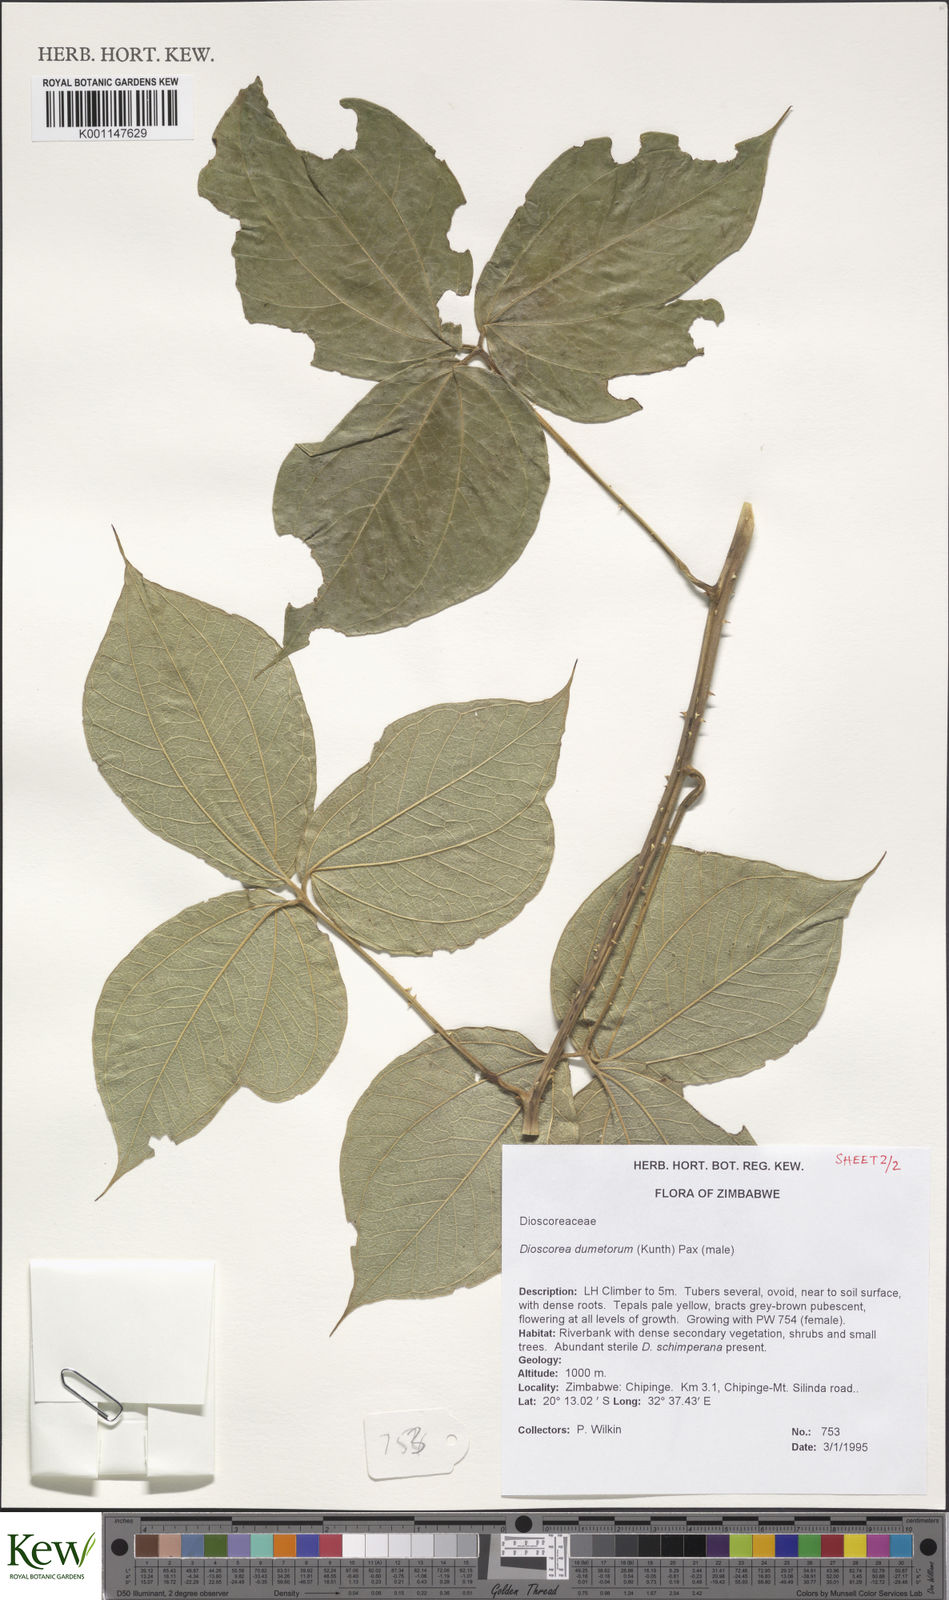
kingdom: Plantae
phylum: Tracheophyta
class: Liliopsida
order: Dioscoreales
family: Dioscoreaceae
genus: Dioscorea
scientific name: Dioscorea dumetorum
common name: African bitter yam
